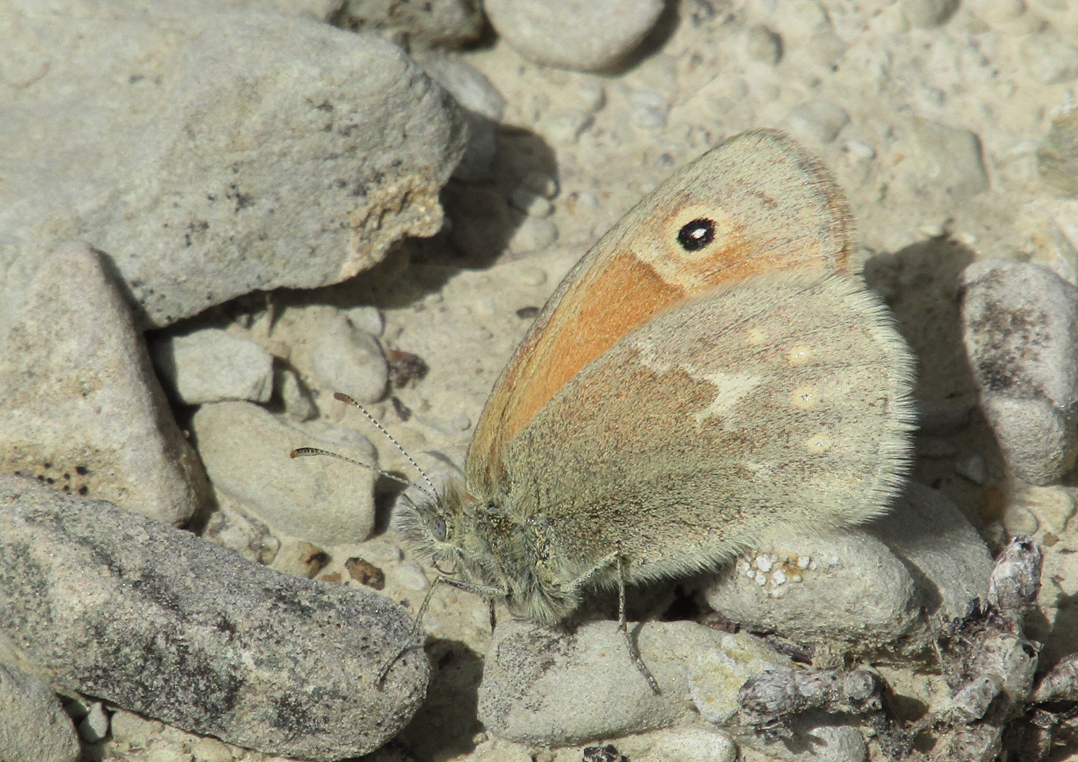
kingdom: Animalia
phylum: Arthropoda
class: Insecta
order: Lepidoptera
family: Nymphalidae
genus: Coenonympha
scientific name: Coenonympha tullia
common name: Large Heath
